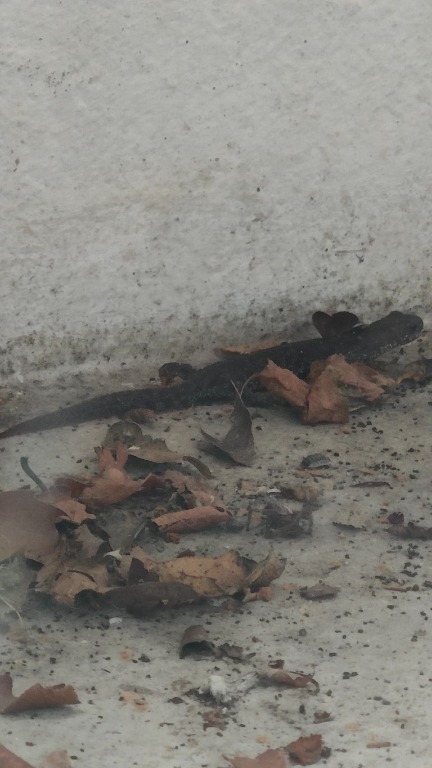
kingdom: Animalia
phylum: Chordata
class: Amphibia
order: Caudata
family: Salamandridae
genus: Triturus
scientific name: Triturus cristatus
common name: Stor vandsalamander
